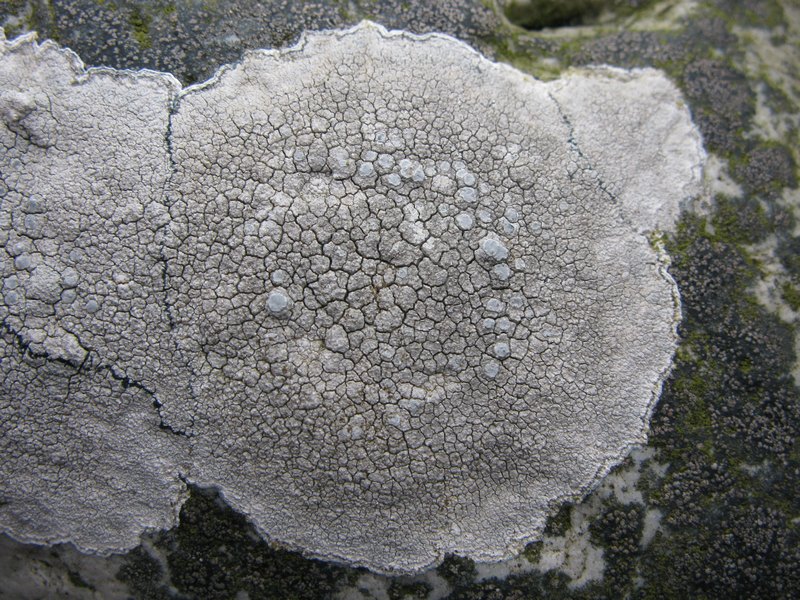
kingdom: Fungi
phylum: Ascomycota
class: Lecanoromycetes
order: Lecanorales
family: Lecanoraceae
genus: Glaucomaria
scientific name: Glaucomaria rupicola
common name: stengærde-kantskivelav
